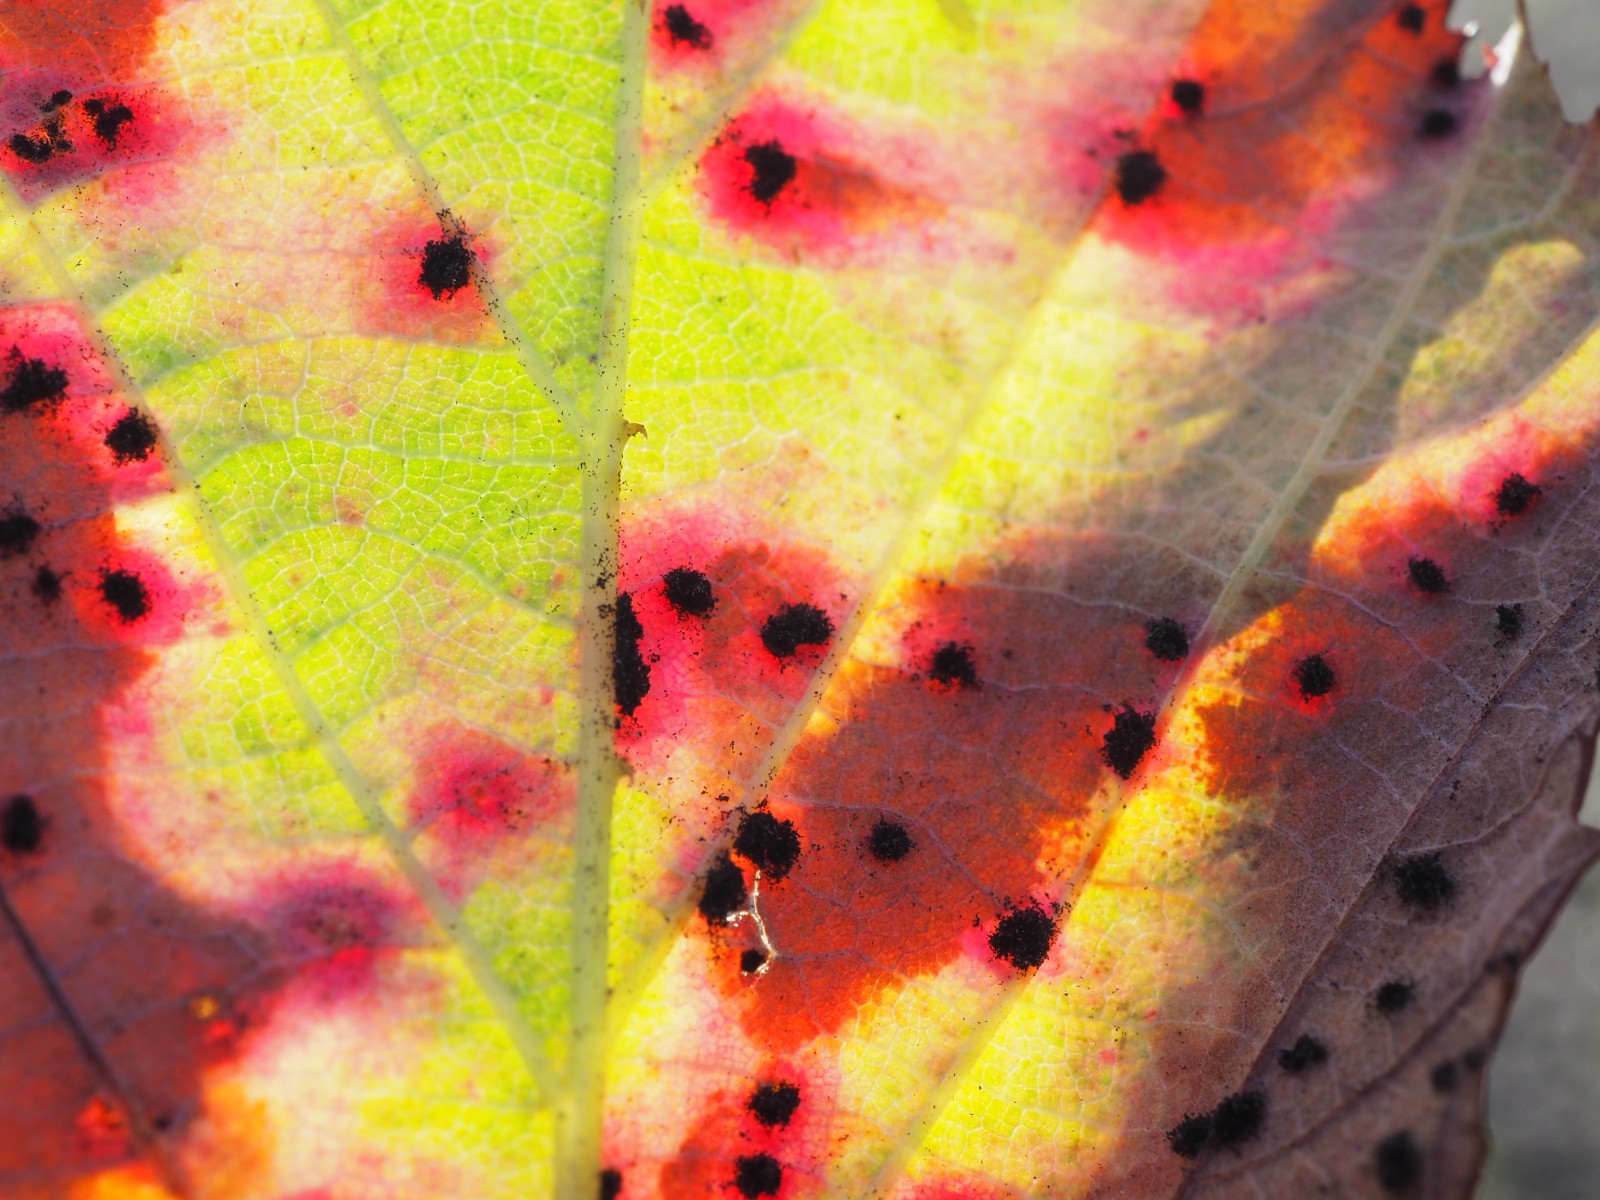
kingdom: Fungi
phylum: Basidiomycota
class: Pucciniomycetes
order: Pucciniales
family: Phragmidiaceae
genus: Phragmidium
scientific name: Phragmidium violaceum
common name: violet flercellerust
